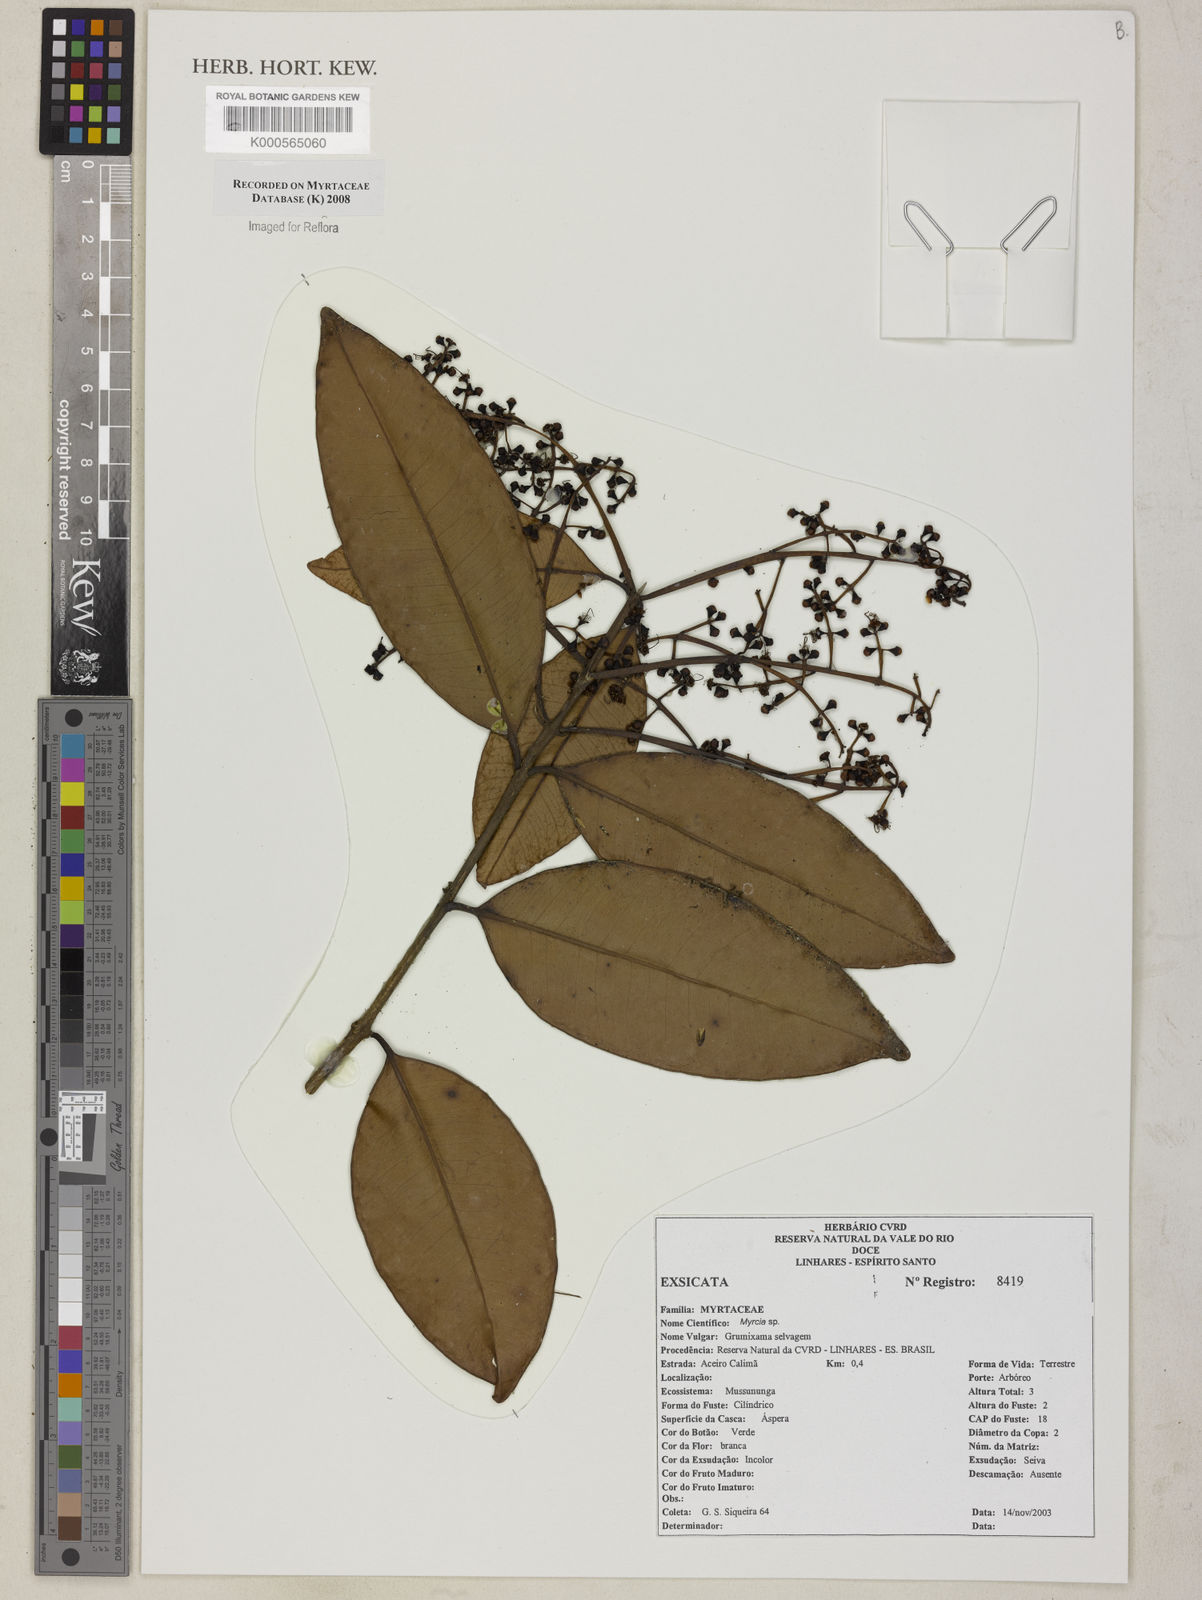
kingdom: Plantae
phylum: Tracheophyta
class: Magnoliopsida
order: Myrtales
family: Myrtaceae
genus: Myrcia
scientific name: Myrcia gilsoniana
